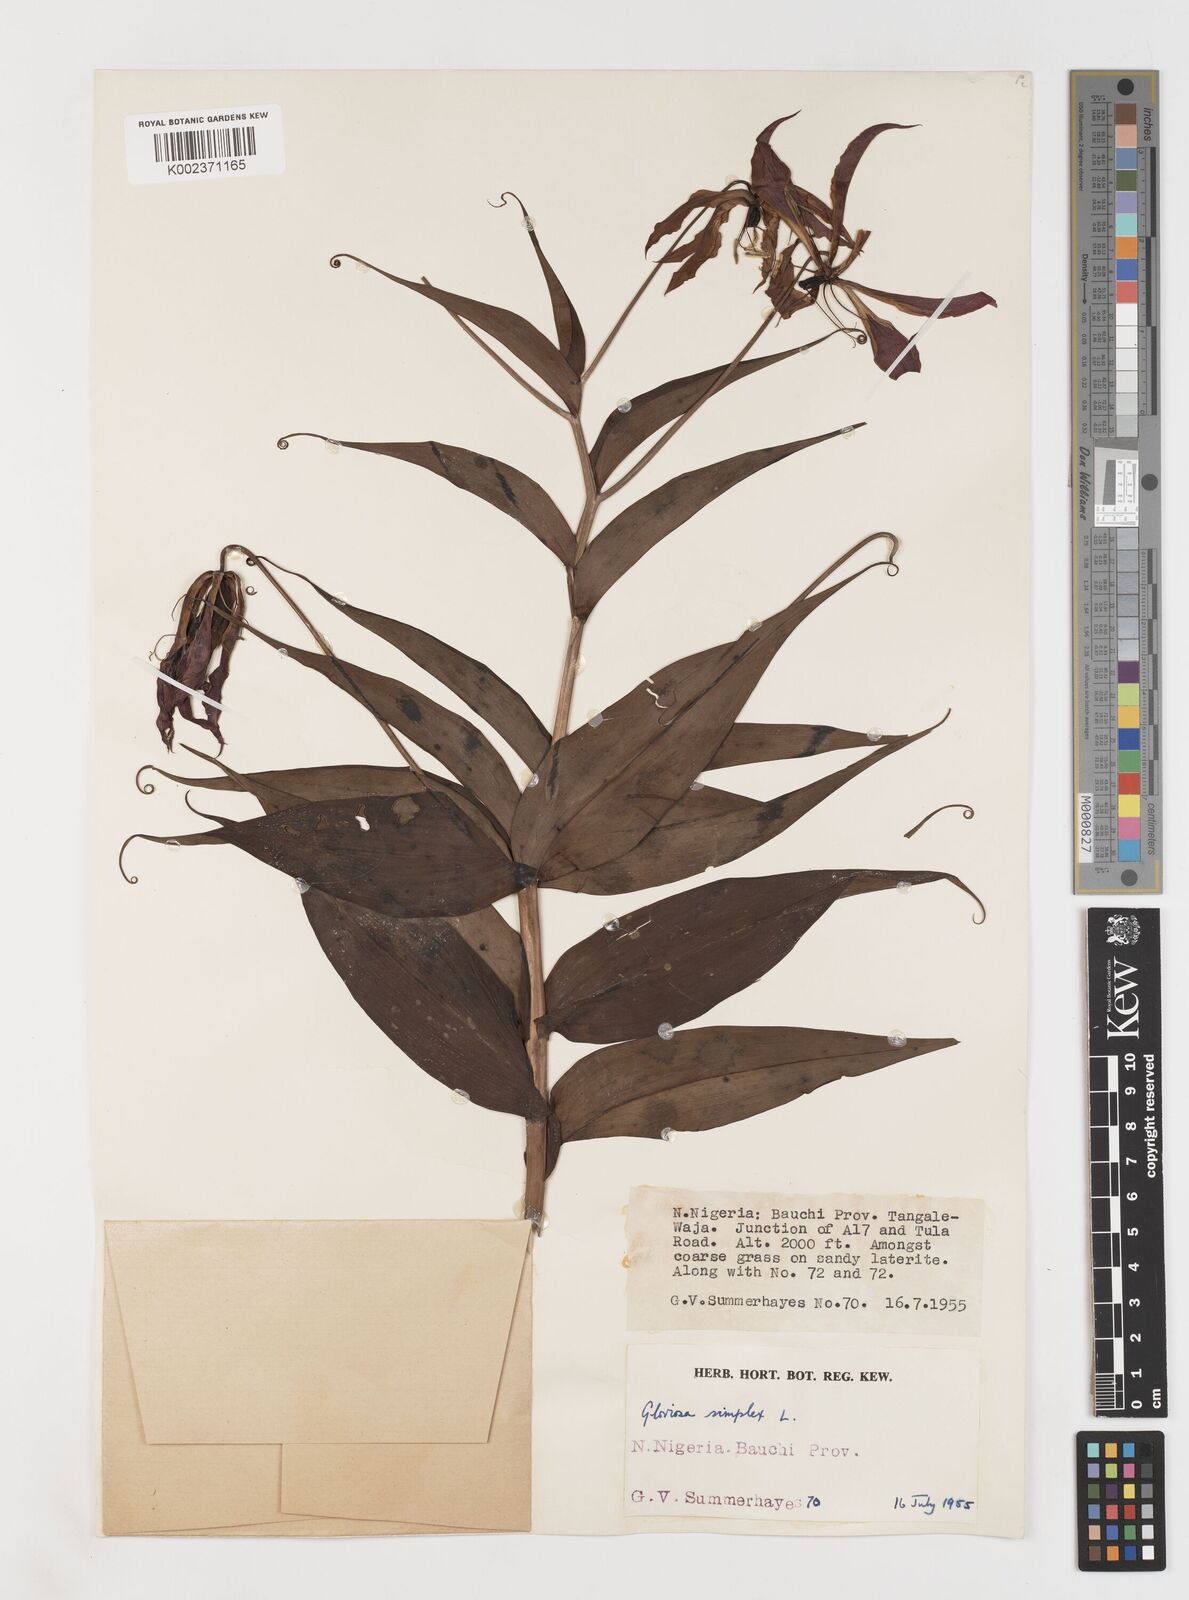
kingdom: Plantae
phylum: Tracheophyta
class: Liliopsida
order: Liliales
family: Colchicaceae
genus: Gloriosa
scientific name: Gloriosa simplex
